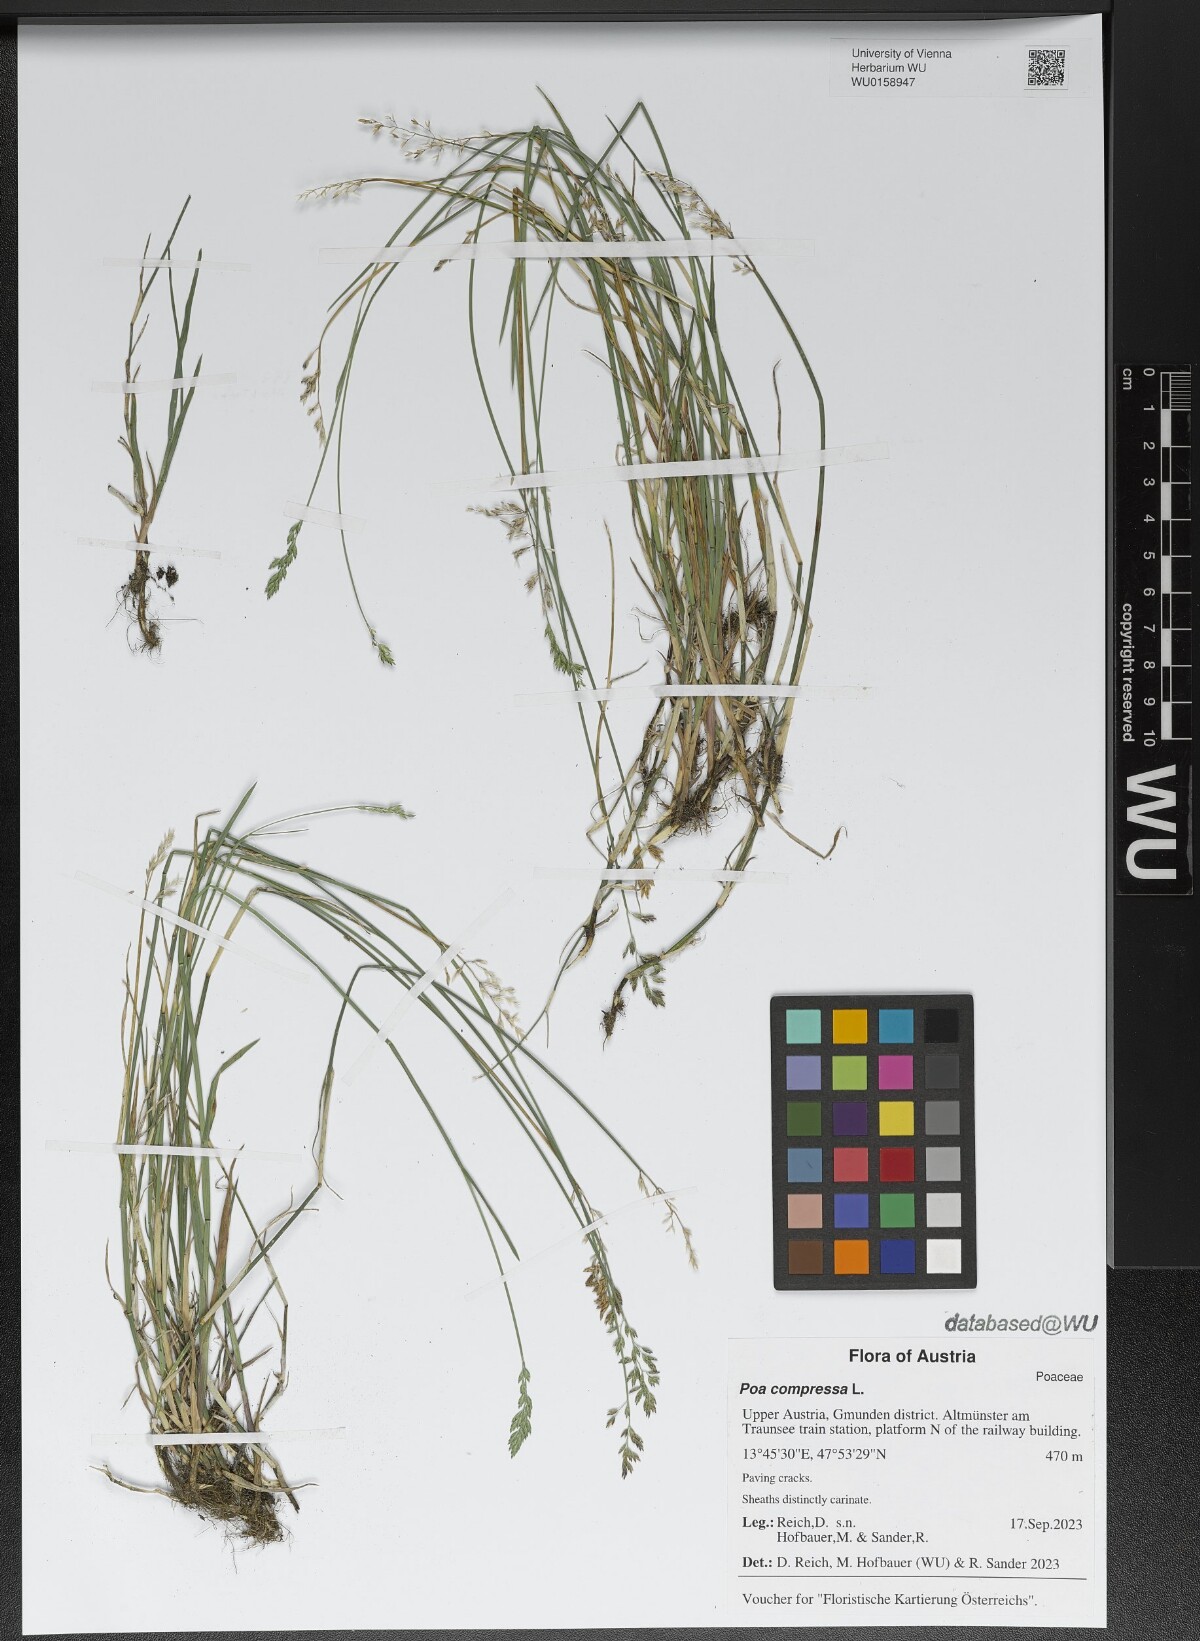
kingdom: Plantae
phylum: Tracheophyta
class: Liliopsida
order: Poales
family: Poaceae
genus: Poa
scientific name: Poa compressa
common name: Canada bluegrass
